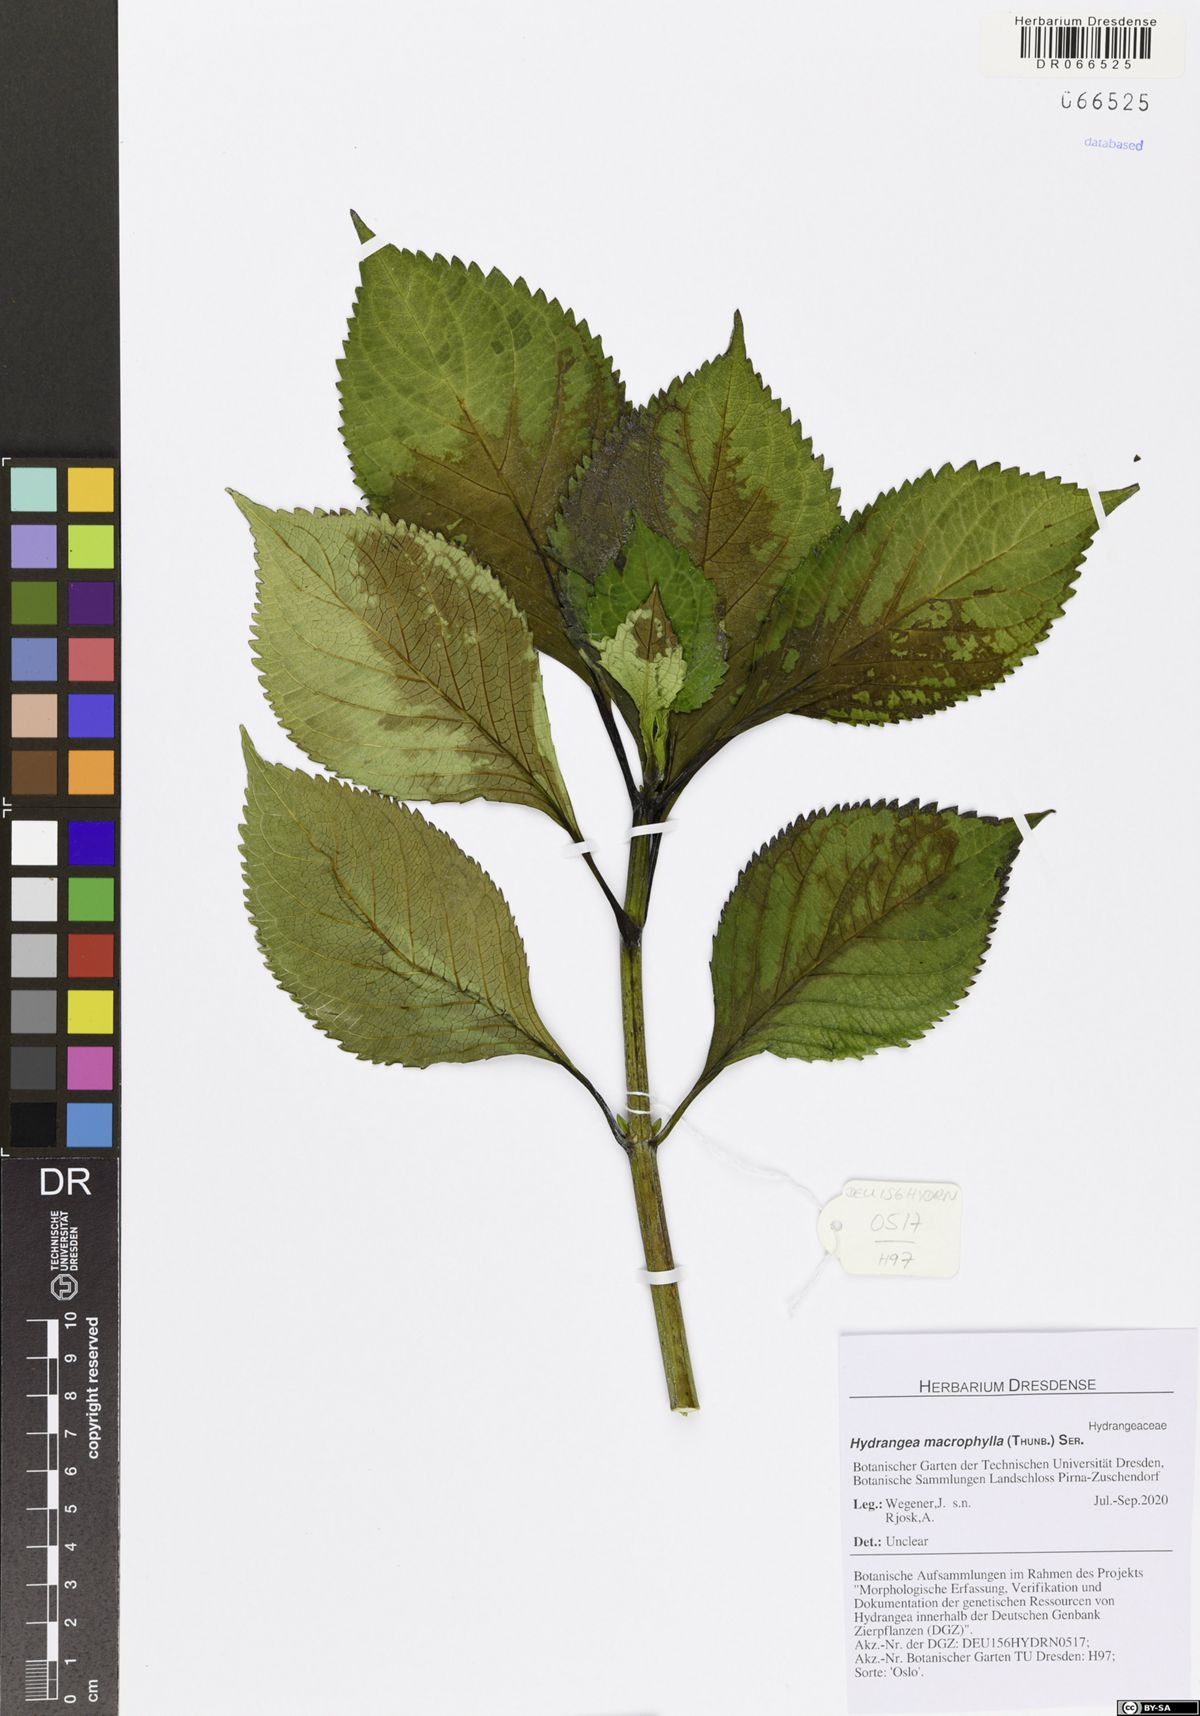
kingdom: Plantae
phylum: Tracheophyta
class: Magnoliopsida
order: Cornales
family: Hydrangeaceae
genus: Hydrangea
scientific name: Hydrangea macrophylla
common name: Hydrangea
